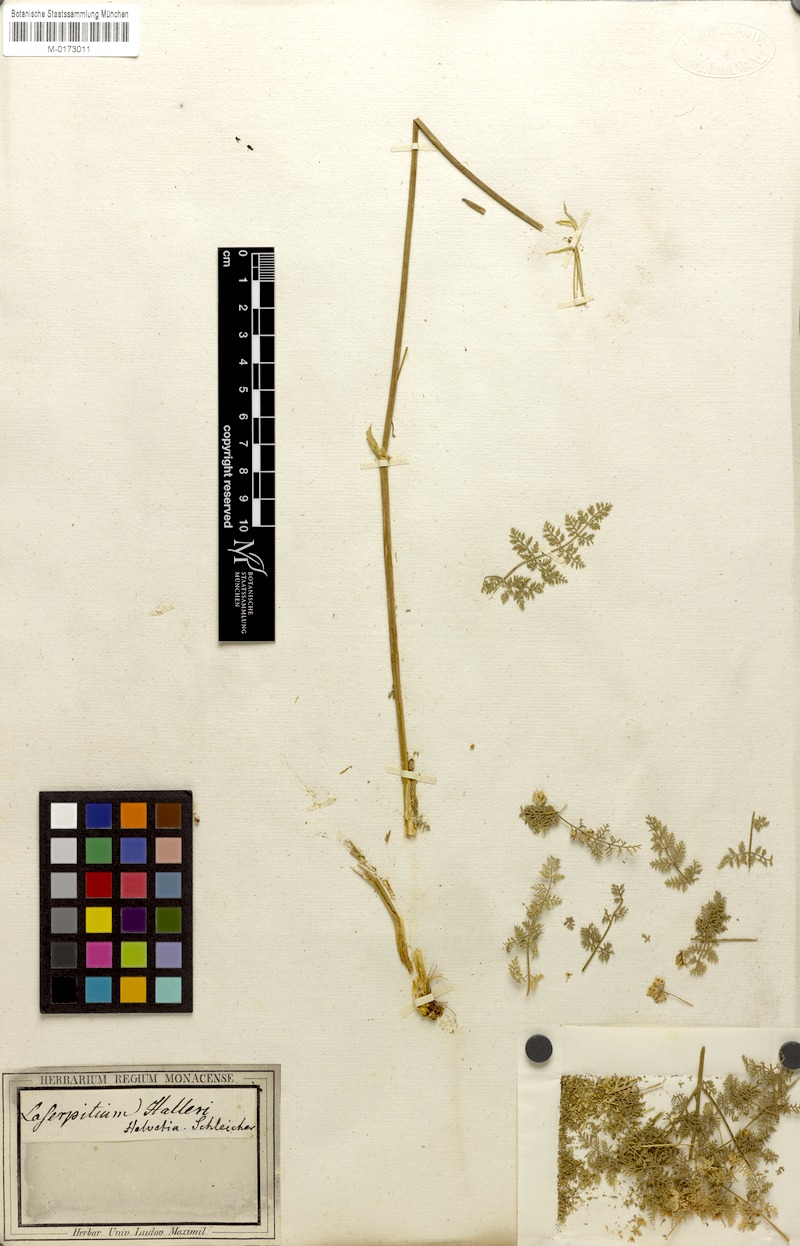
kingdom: Plantae
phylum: Tracheophyta
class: Magnoliopsida
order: Apiales
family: Apiaceae
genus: Laserpitium
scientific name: Laserpitium halleri
